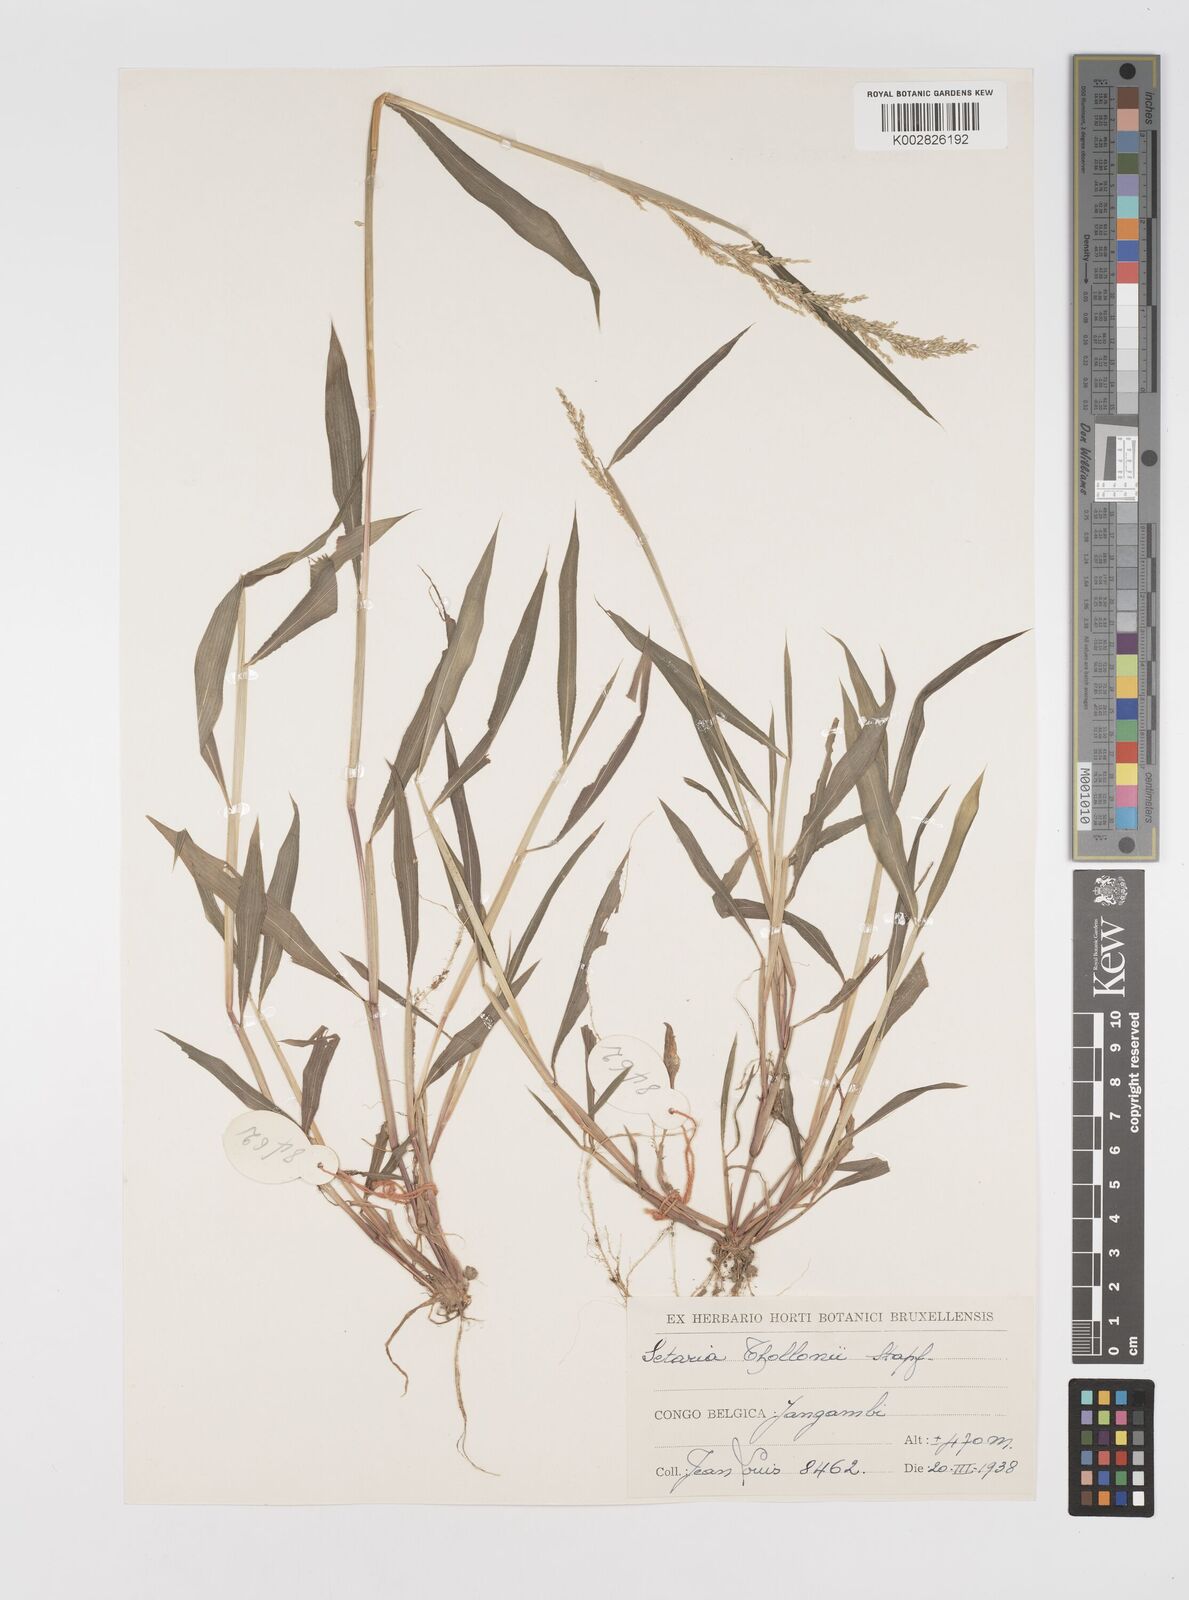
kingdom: Plantae
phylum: Tracheophyta
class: Liliopsida
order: Poales
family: Poaceae
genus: Setaria
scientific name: Setaria homonyma
